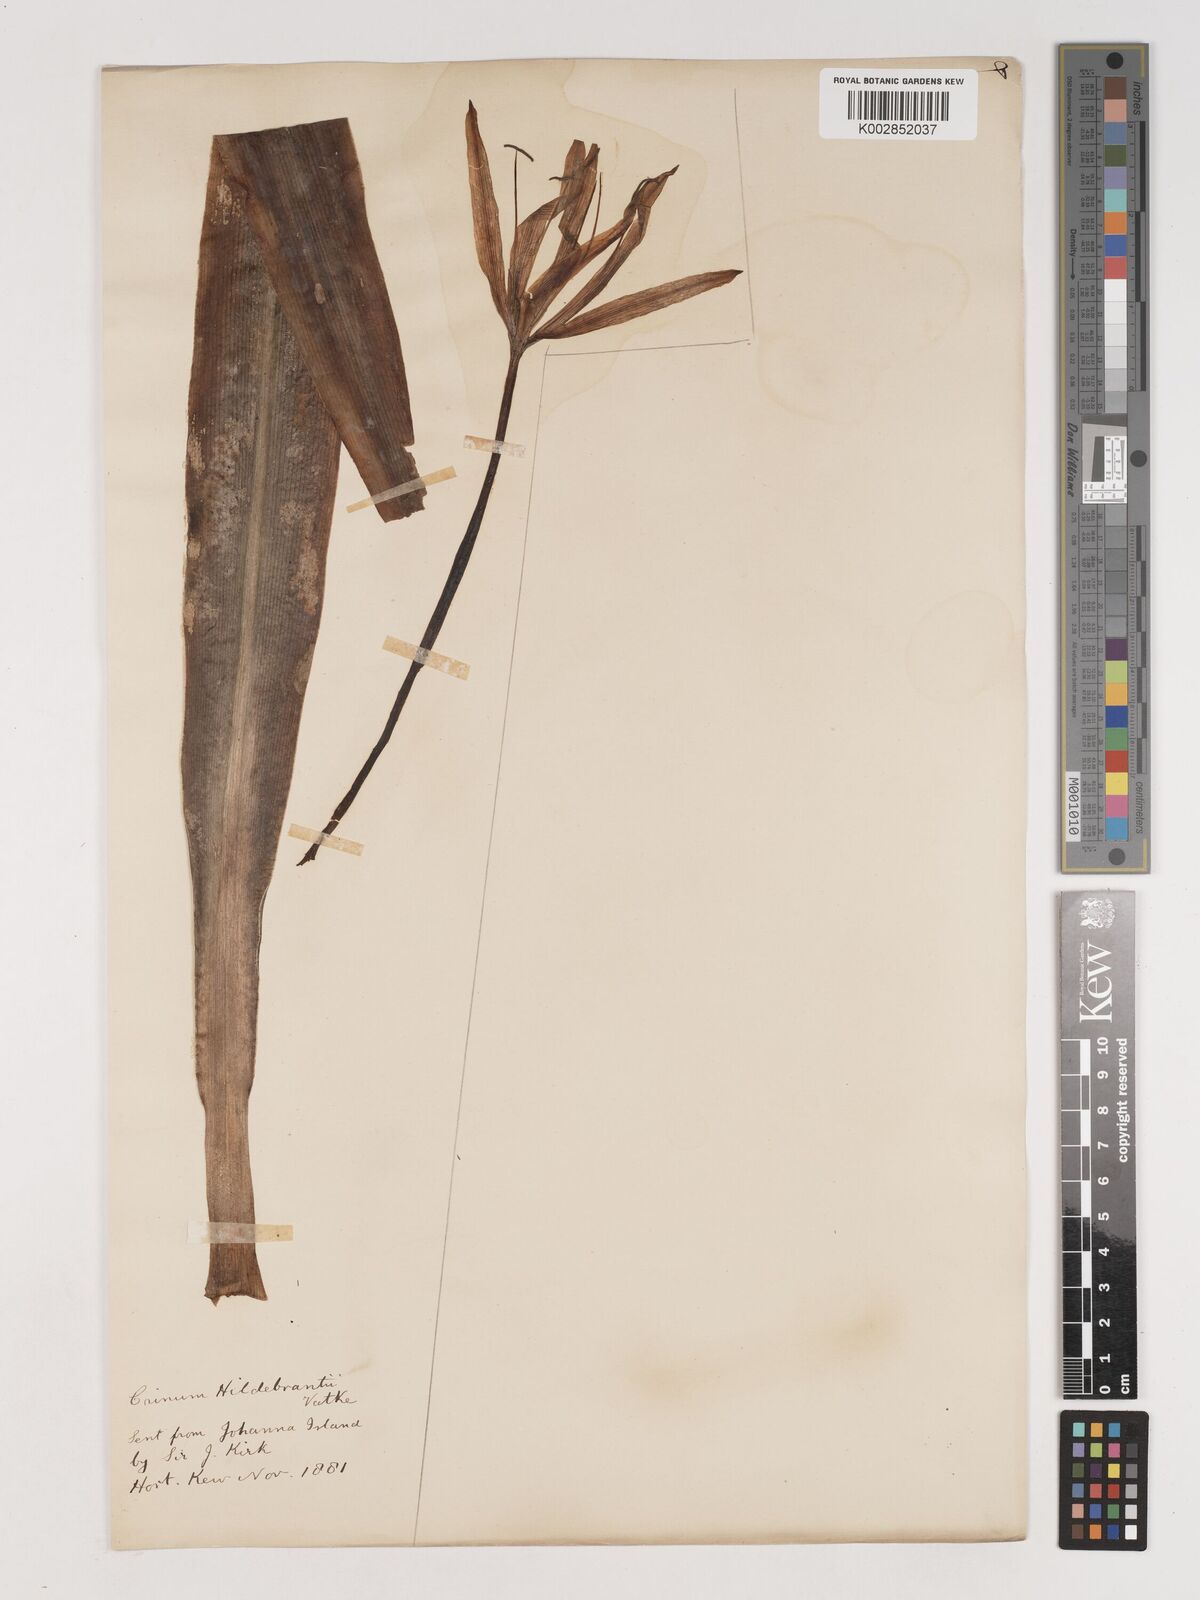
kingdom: Plantae
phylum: Tracheophyta
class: Liliopsida
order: Asparagales
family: Amaryllidaceae
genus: Crinum
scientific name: Crinum hildebrandtii
